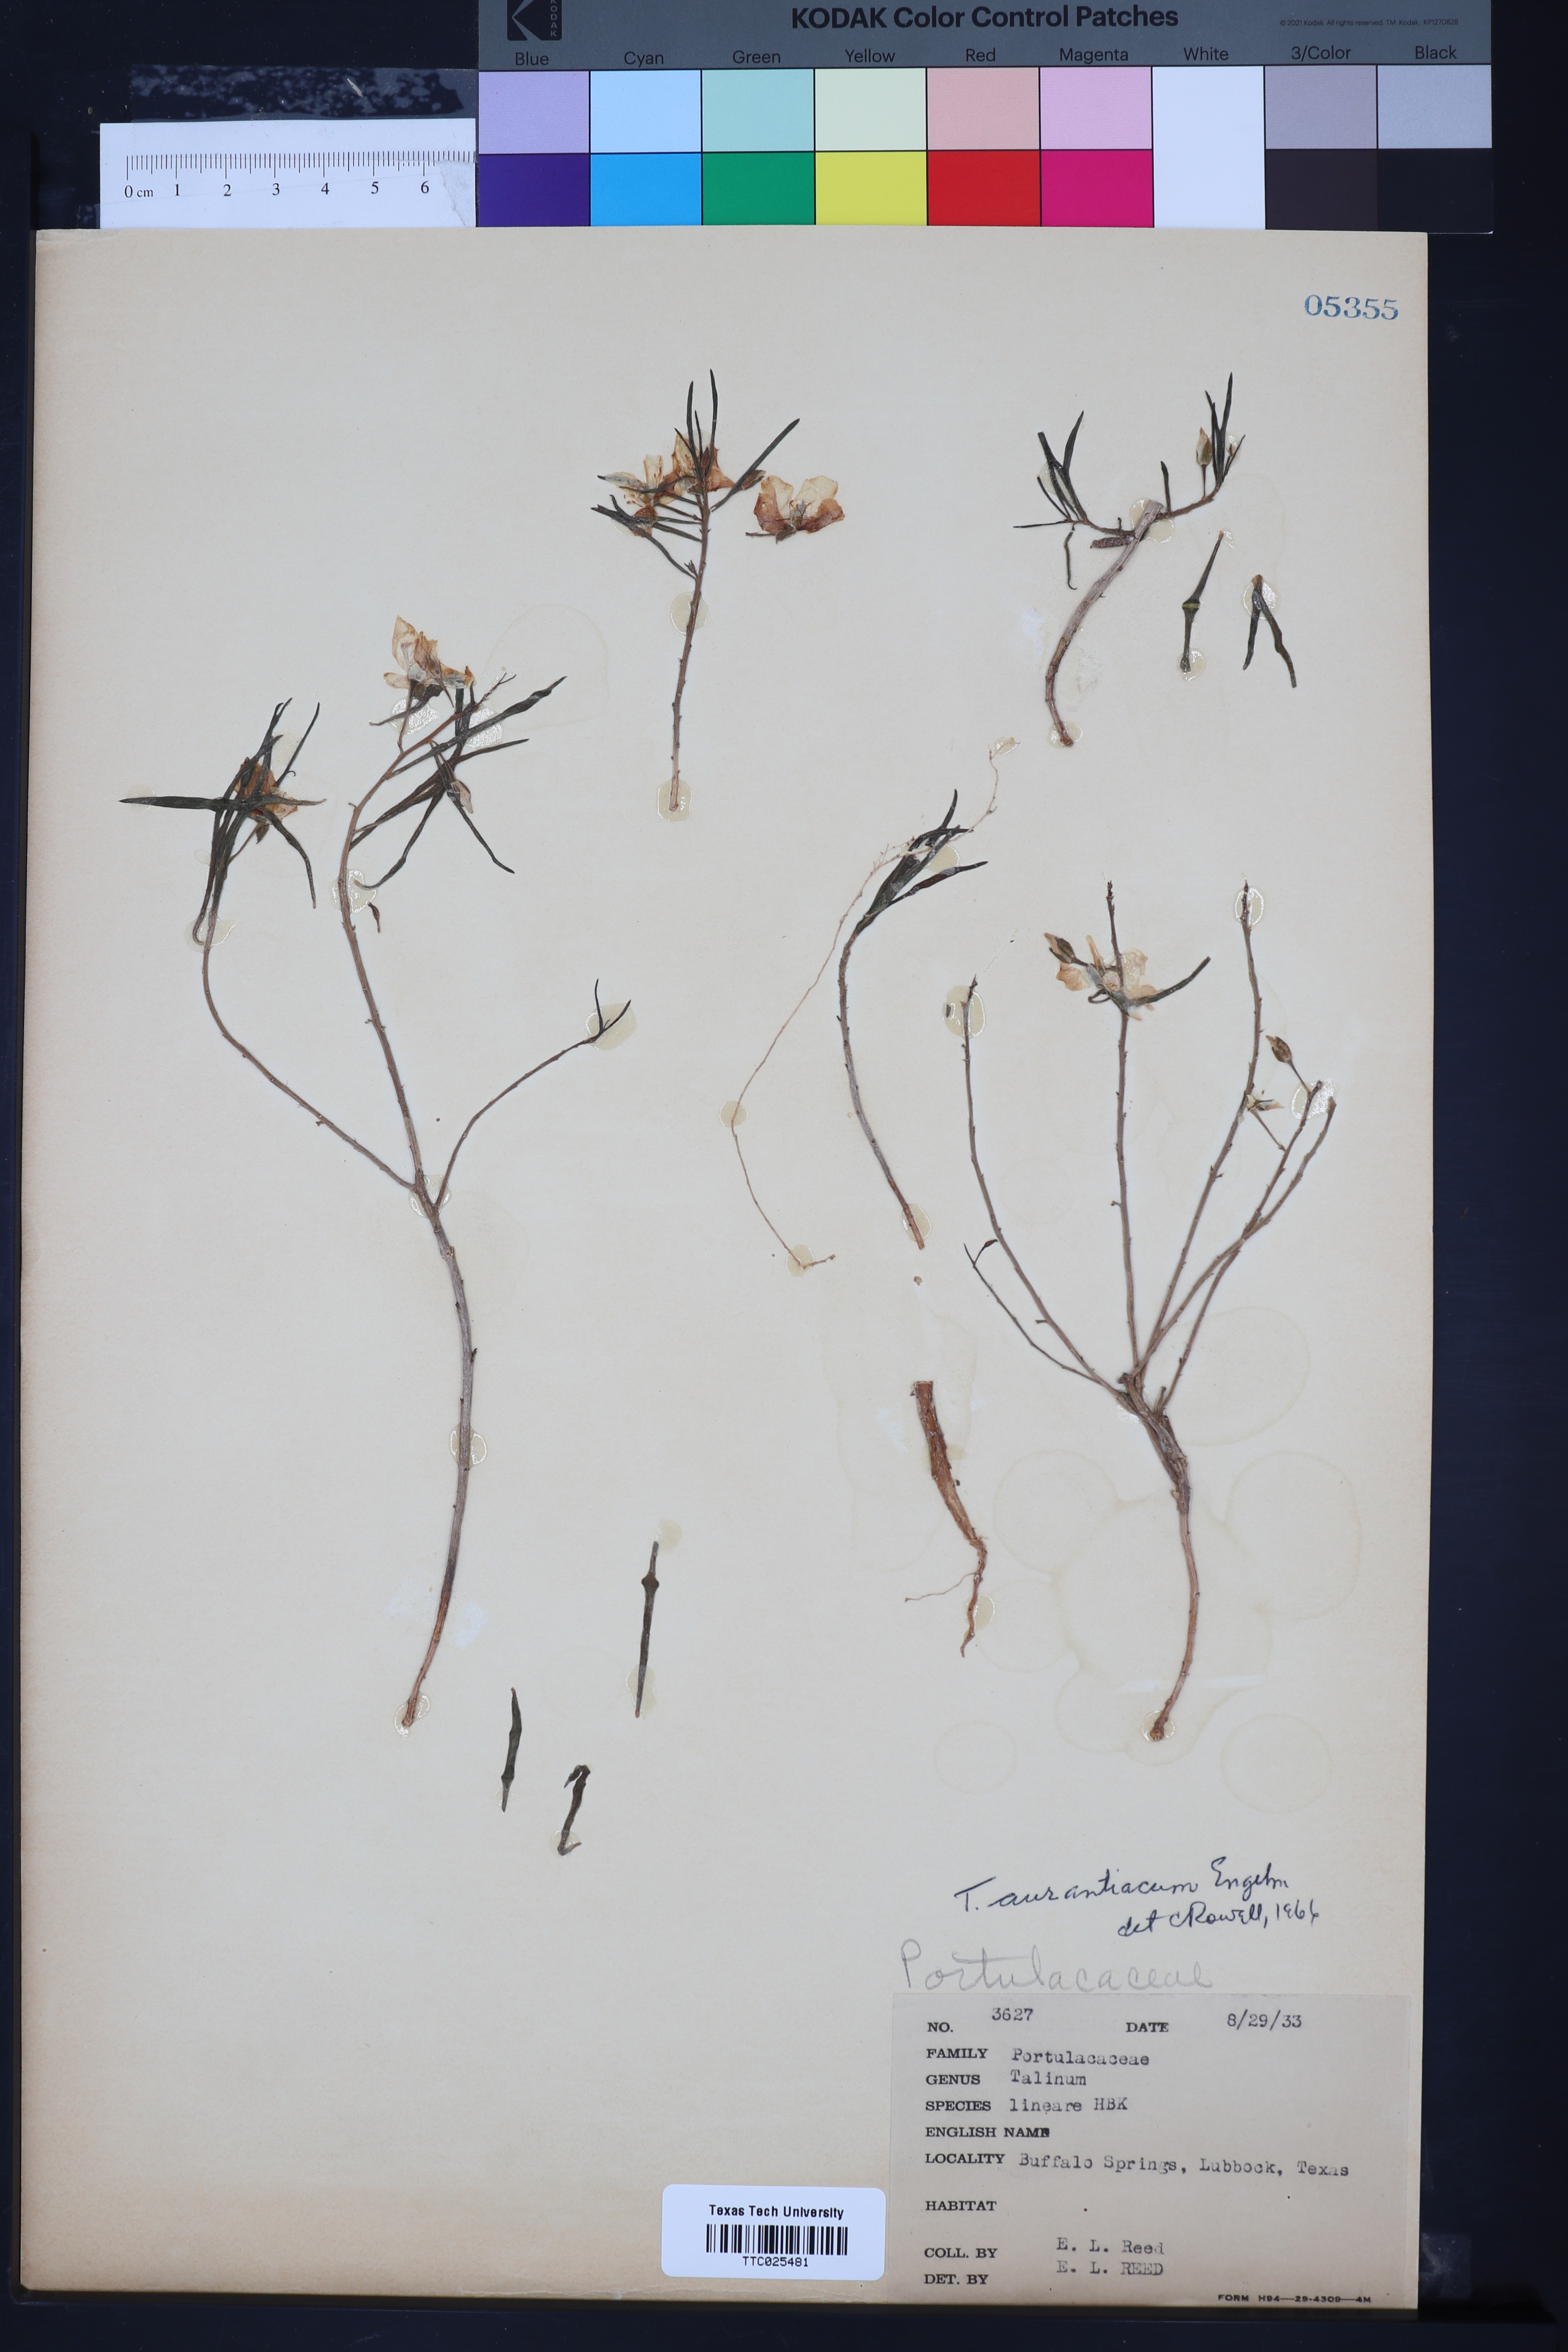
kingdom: Plantae
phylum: Tracheophyta
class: Magnoliopsida
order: Caryophyllales
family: Montiaceae
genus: Phemeranthus
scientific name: Phemeranthus aurantiacus
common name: Orange fameflower
